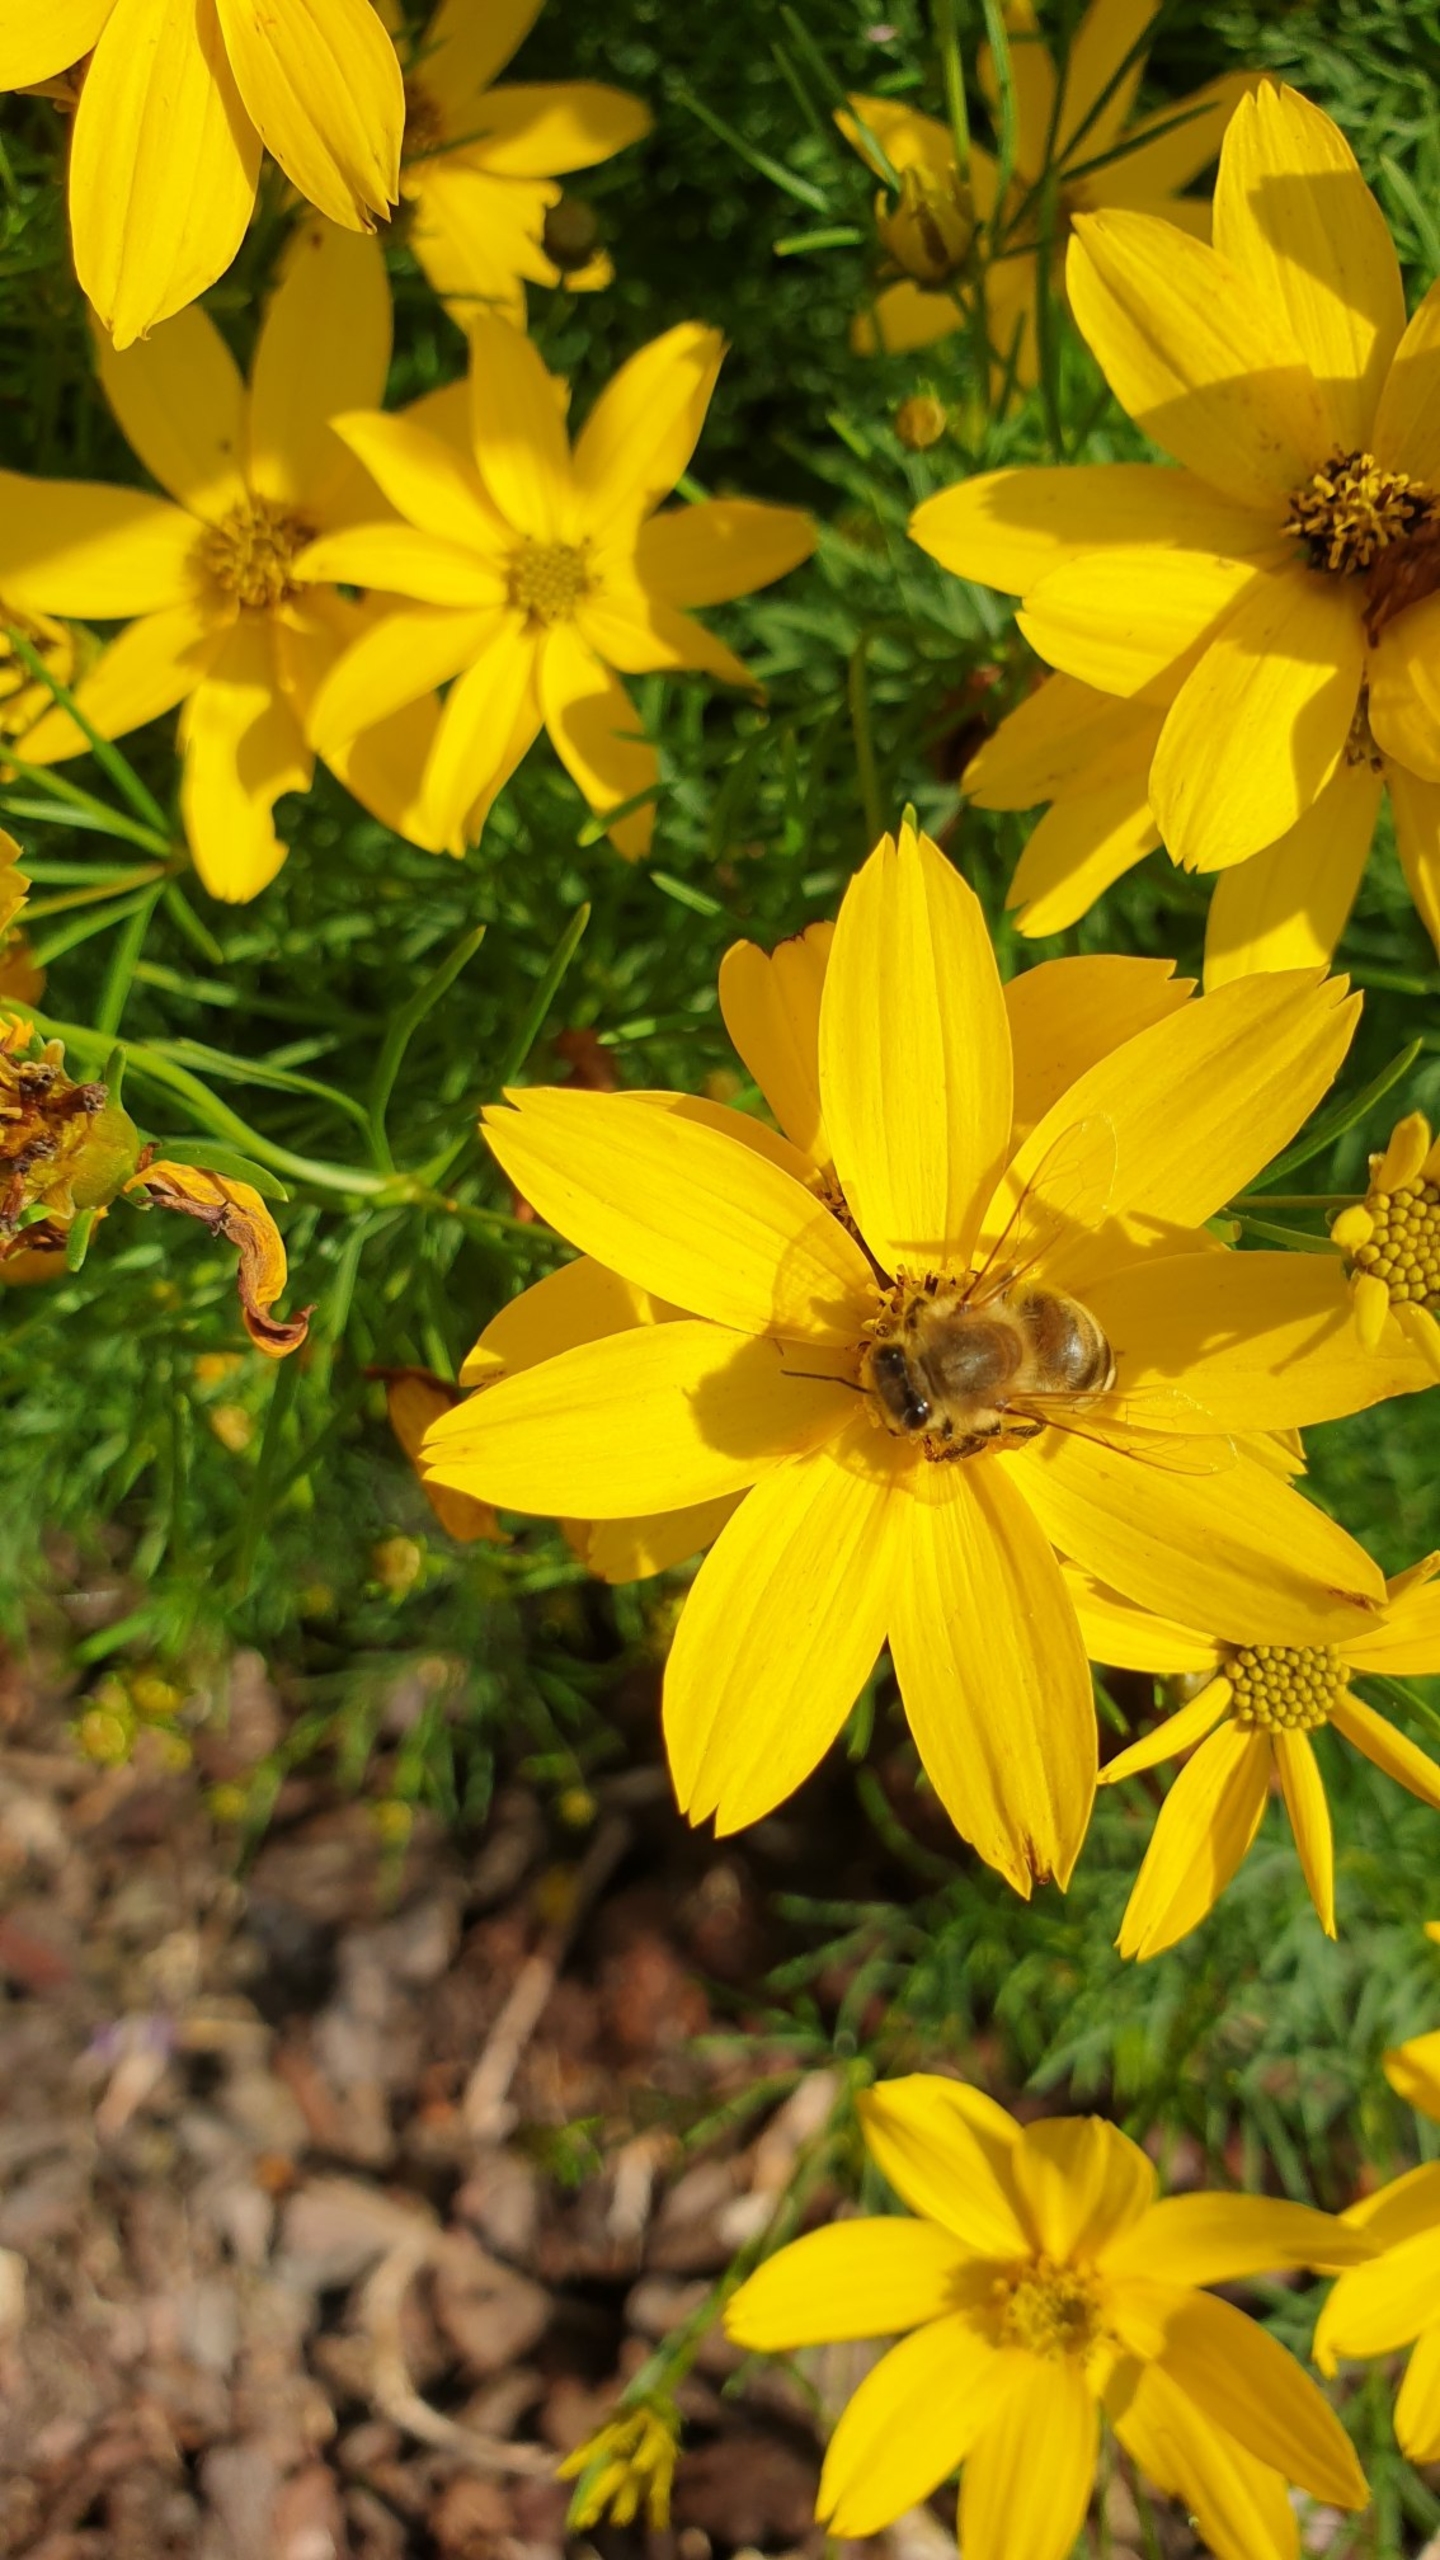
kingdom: Animalia
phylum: Arthropoda
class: Insecta
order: Hymenoptera
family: Apidae
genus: Apis
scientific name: Apis mellifera
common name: Honningbi
